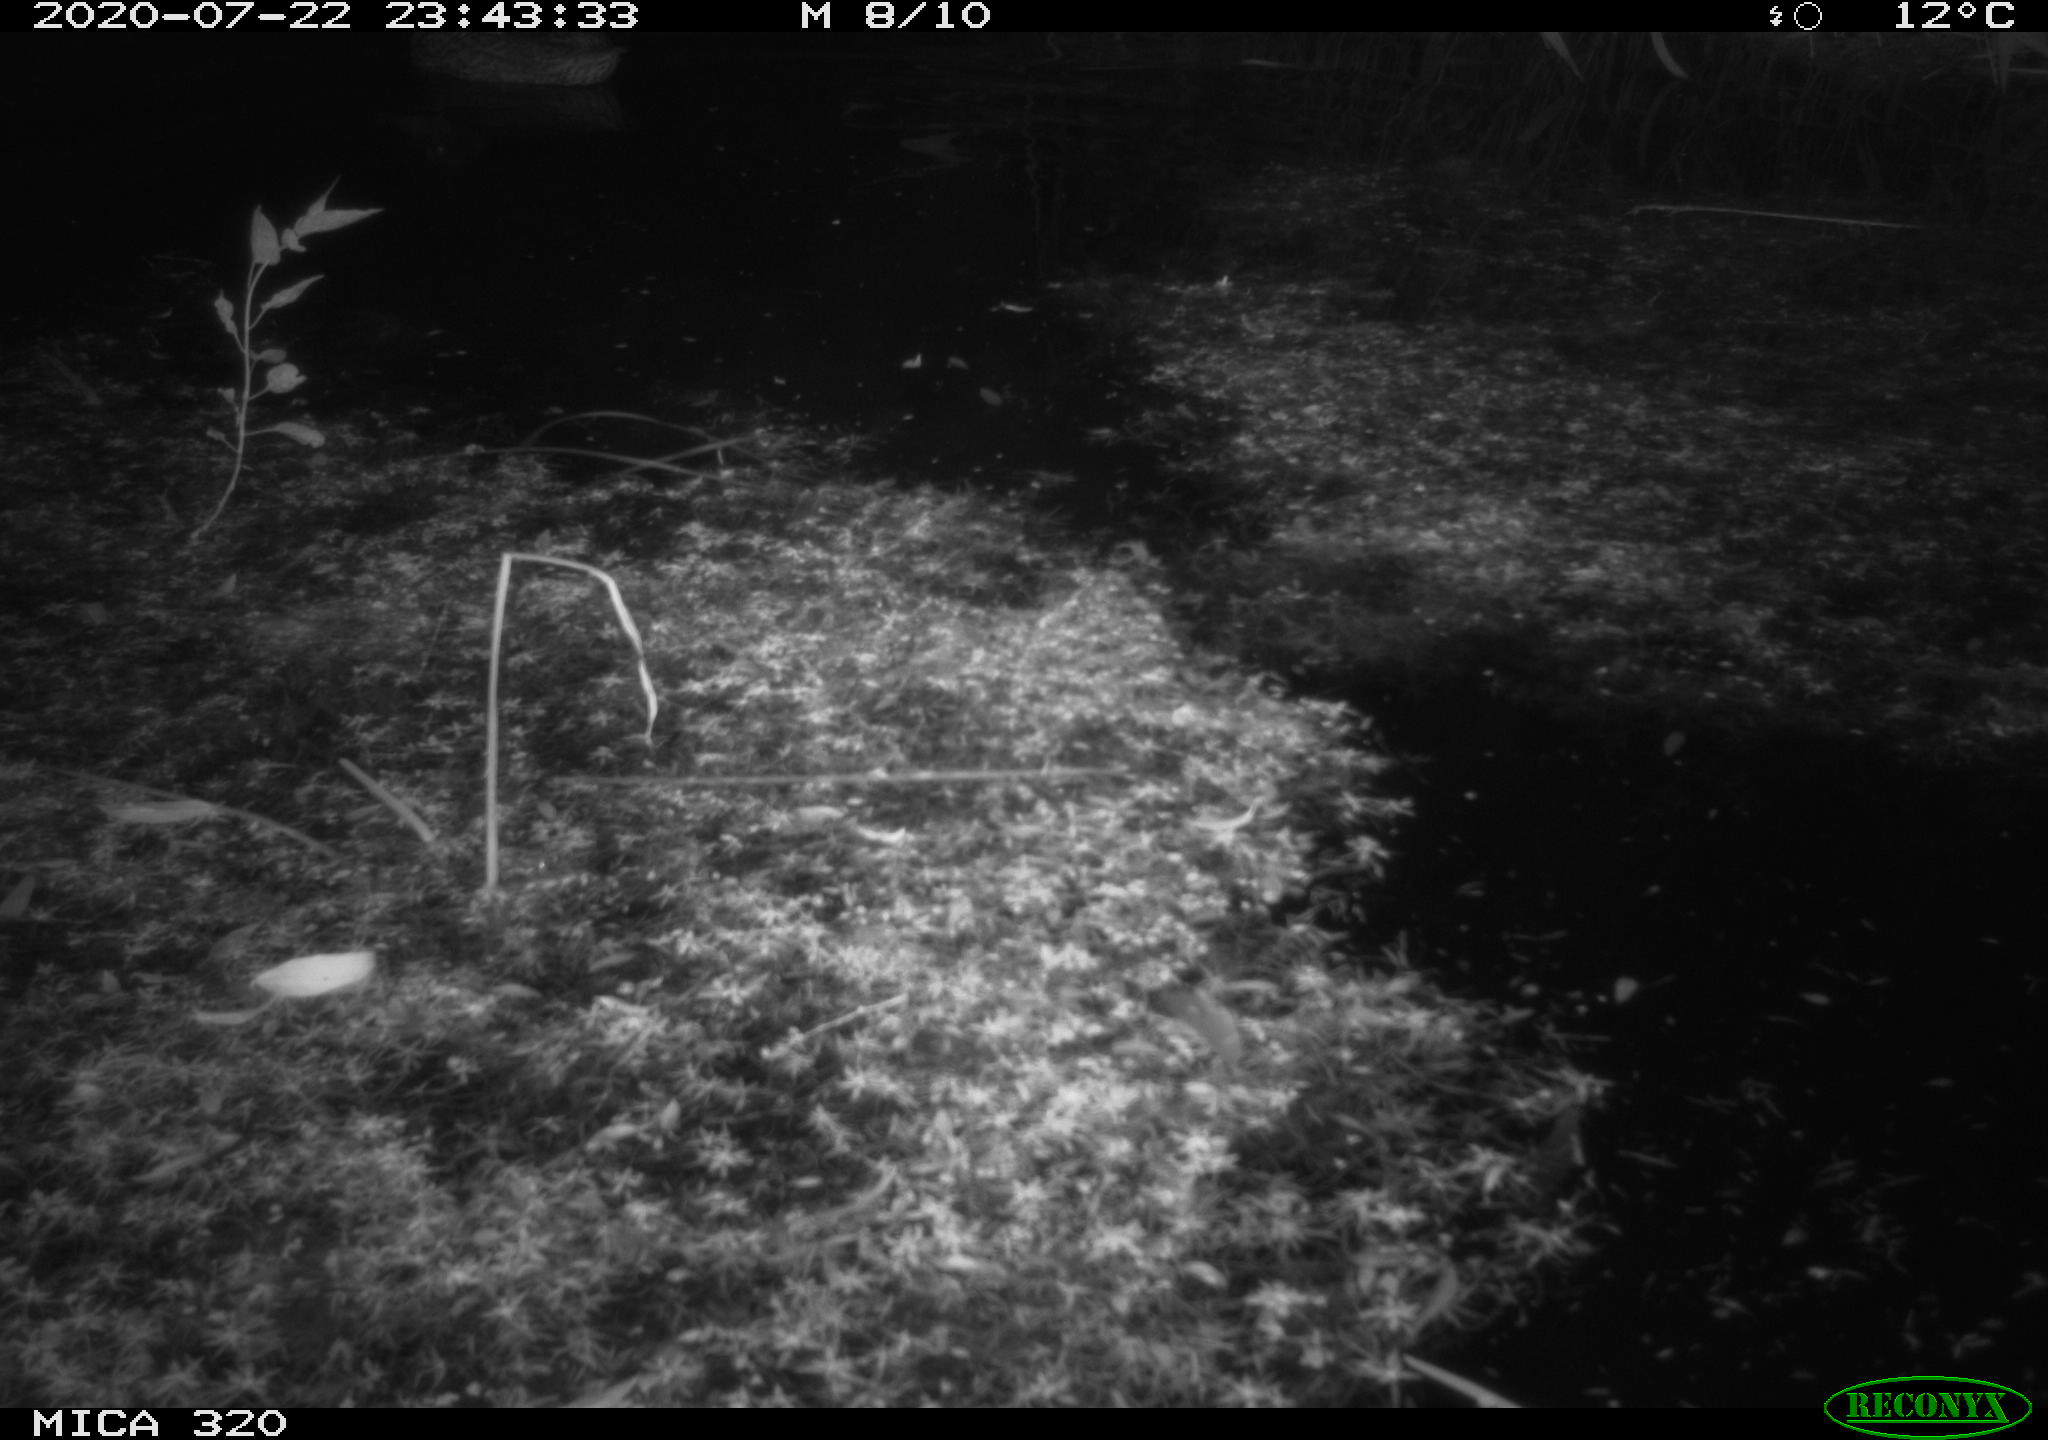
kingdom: Animalia
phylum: Chordata
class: Aves
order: Anseriformes
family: Anatidae
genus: Anas
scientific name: Anas platyrhynchos
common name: Mallard
